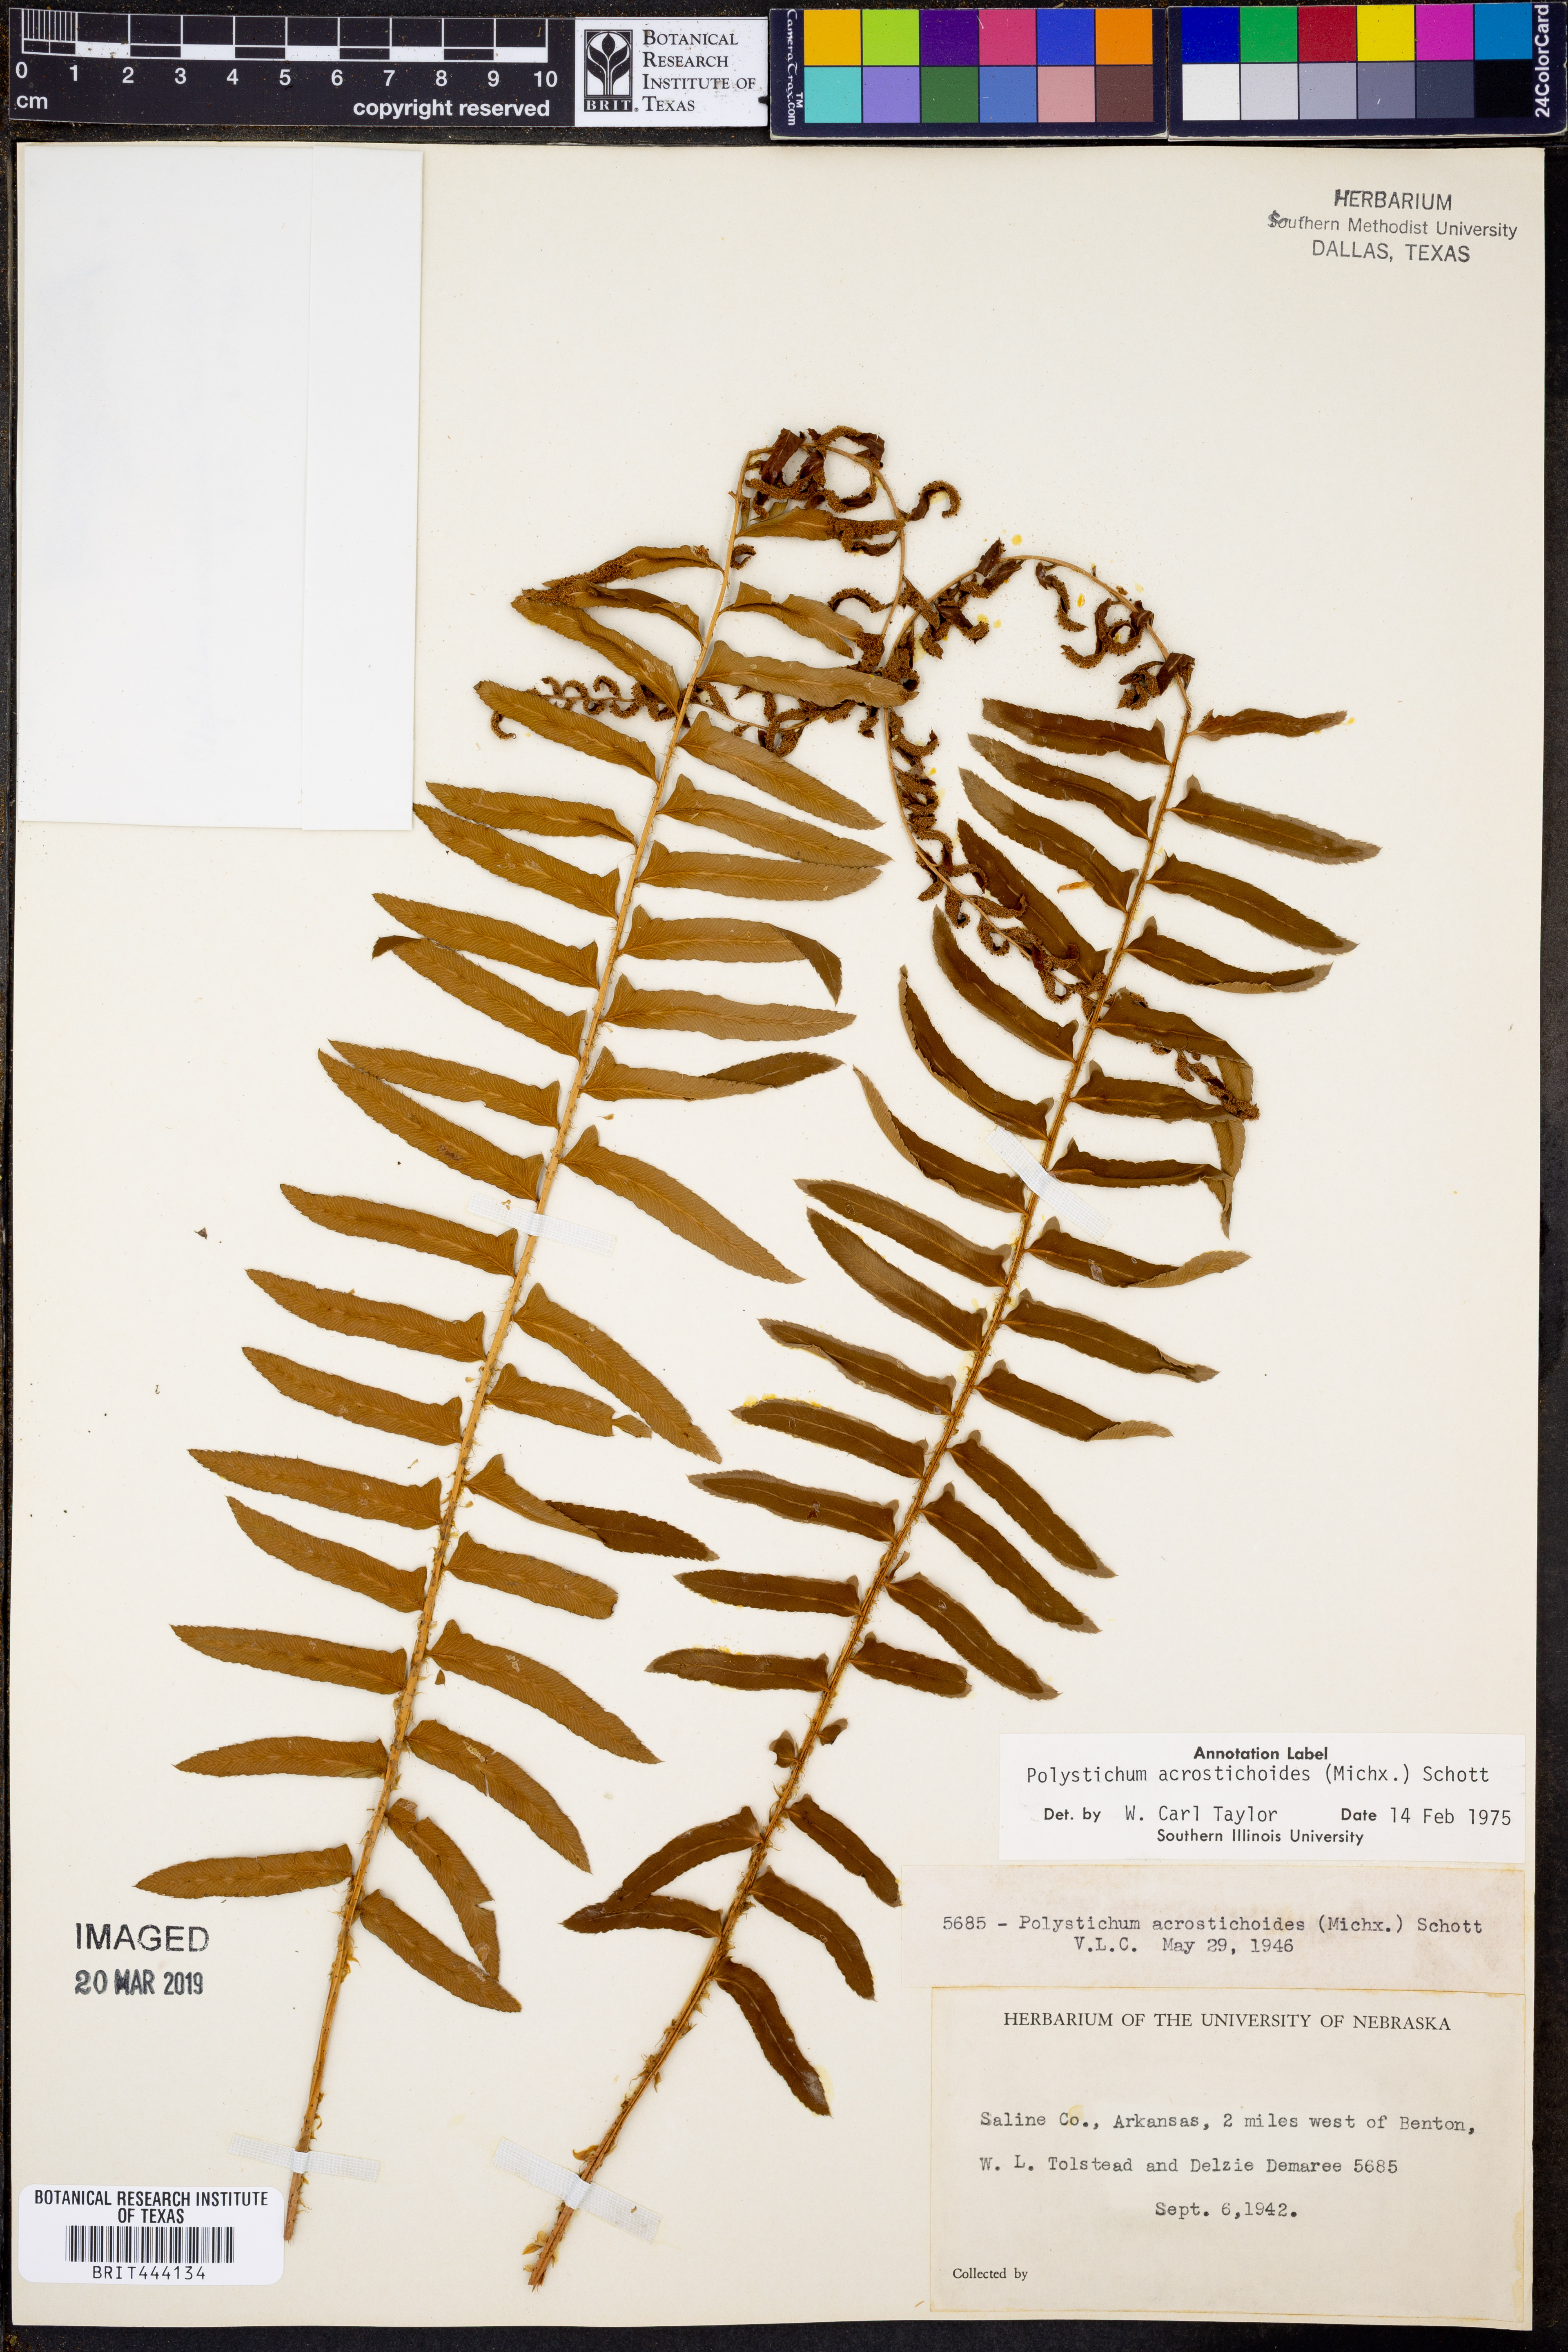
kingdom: Plantae
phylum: Tracheophyta
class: Polypodiopsida
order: Polypodiales
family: Dryopteridaceae
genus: Polystichum
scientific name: Polystichum acrostichoides
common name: Christmas fern
